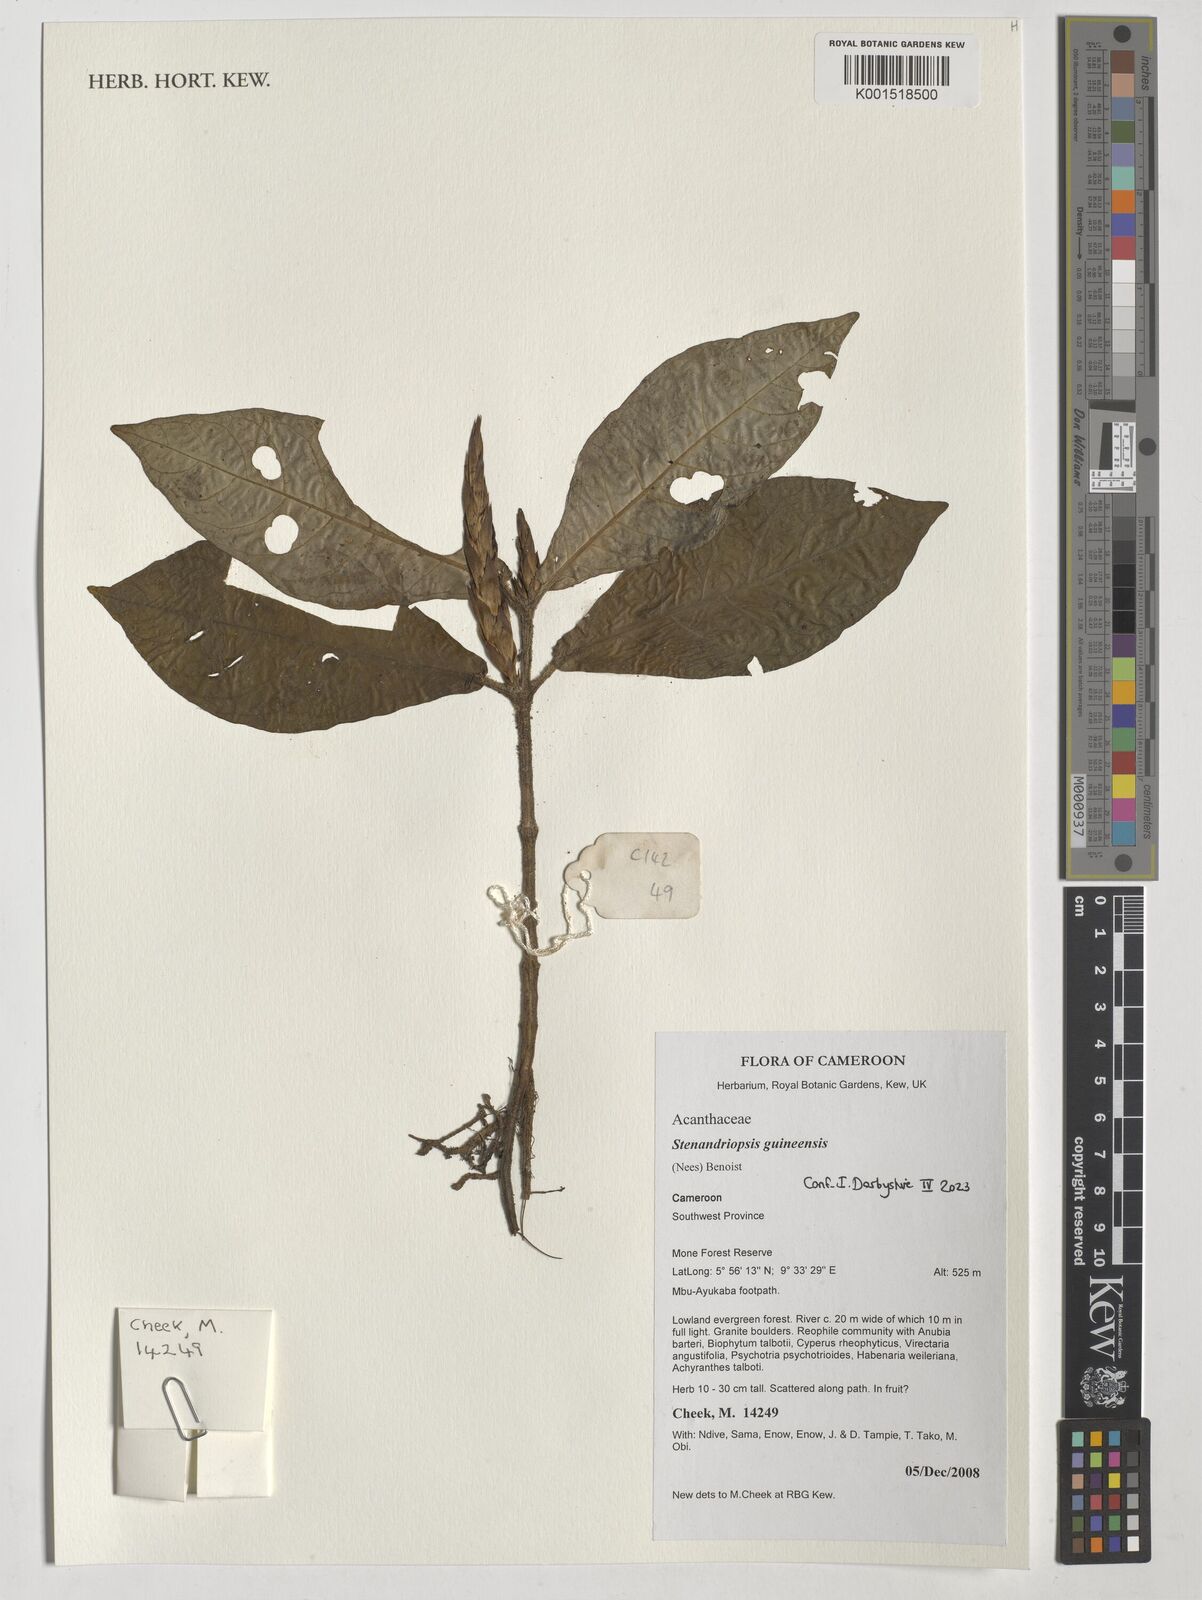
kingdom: Plantae
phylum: Tracheophyta
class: Magnoliopsida
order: Lamiales
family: Acanthaceae
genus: Stenandriopsis
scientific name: Stenandriopsis guineensis
